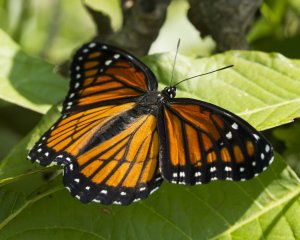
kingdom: Animalia
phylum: Arthropoda
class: Insecta
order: Lepidoptera
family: Nymphalidae
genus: Limenitis
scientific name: Limenitis archippus
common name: Viceroy
